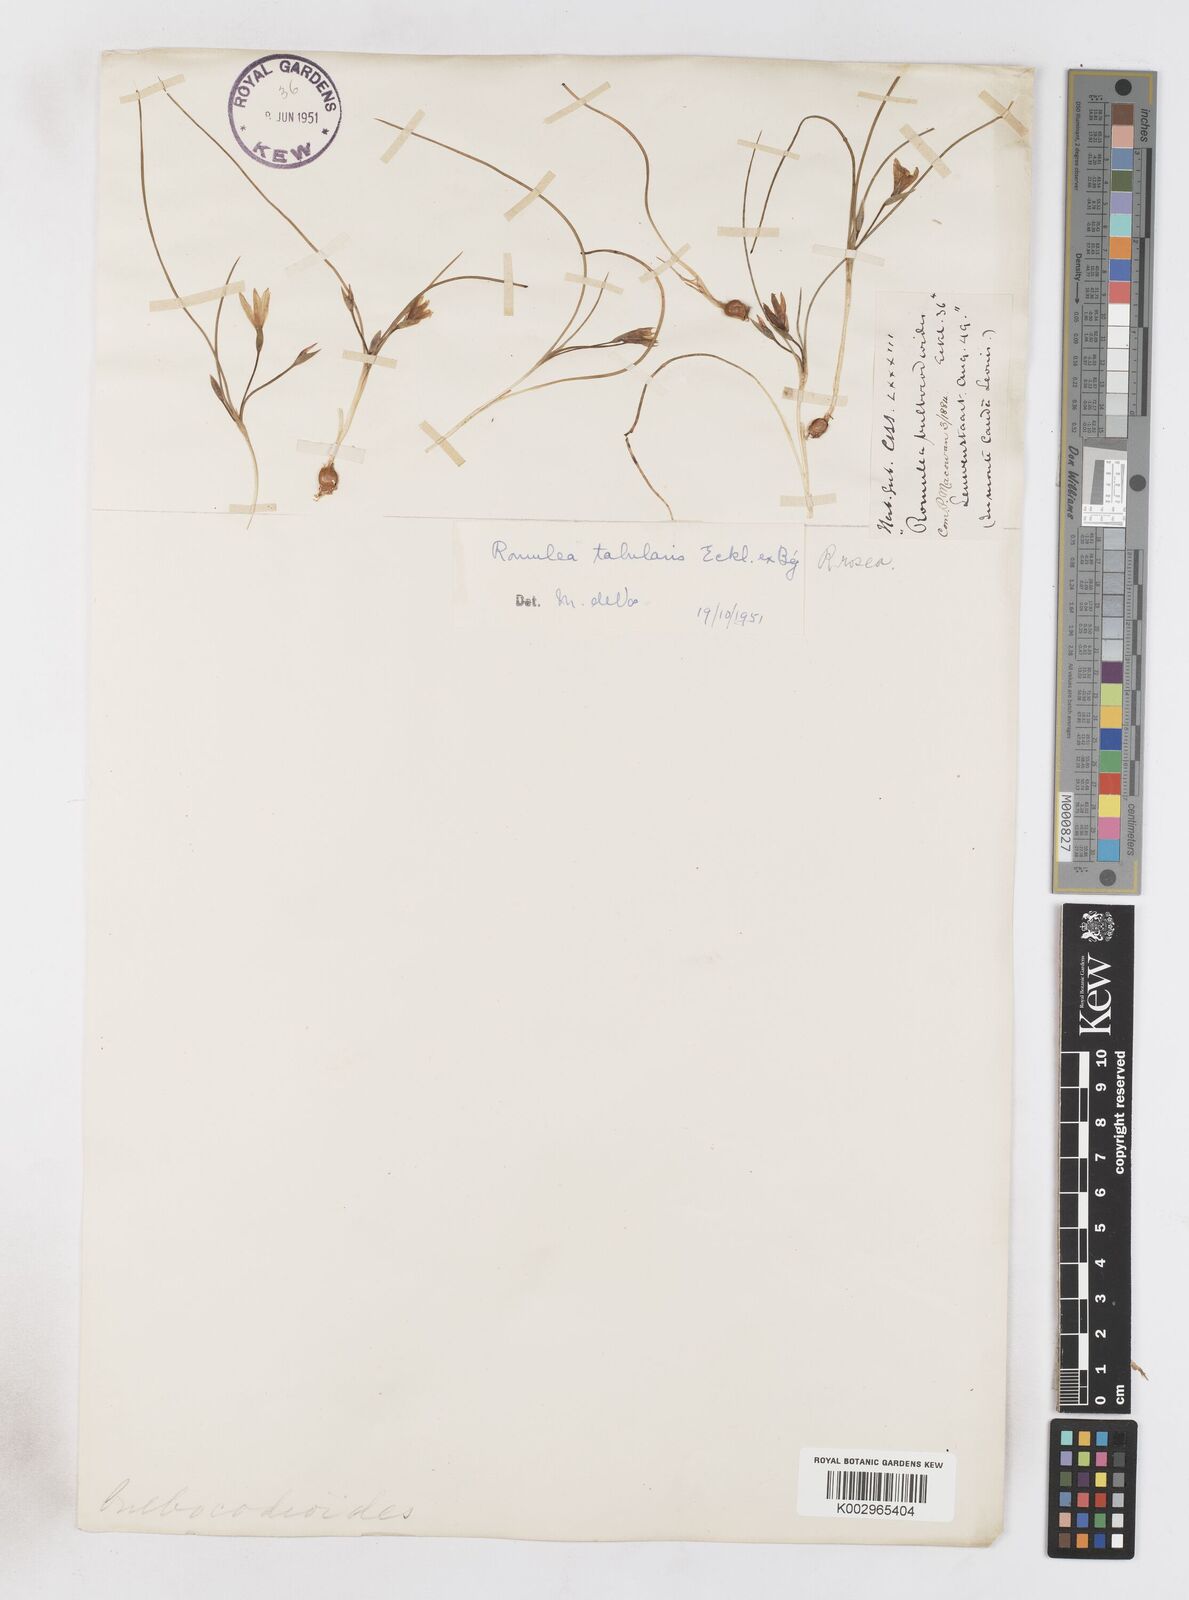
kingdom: Plantae
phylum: Tracheophyta
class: Liliopsida
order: Asparagales
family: Iridaceae
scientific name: Iridaceae
